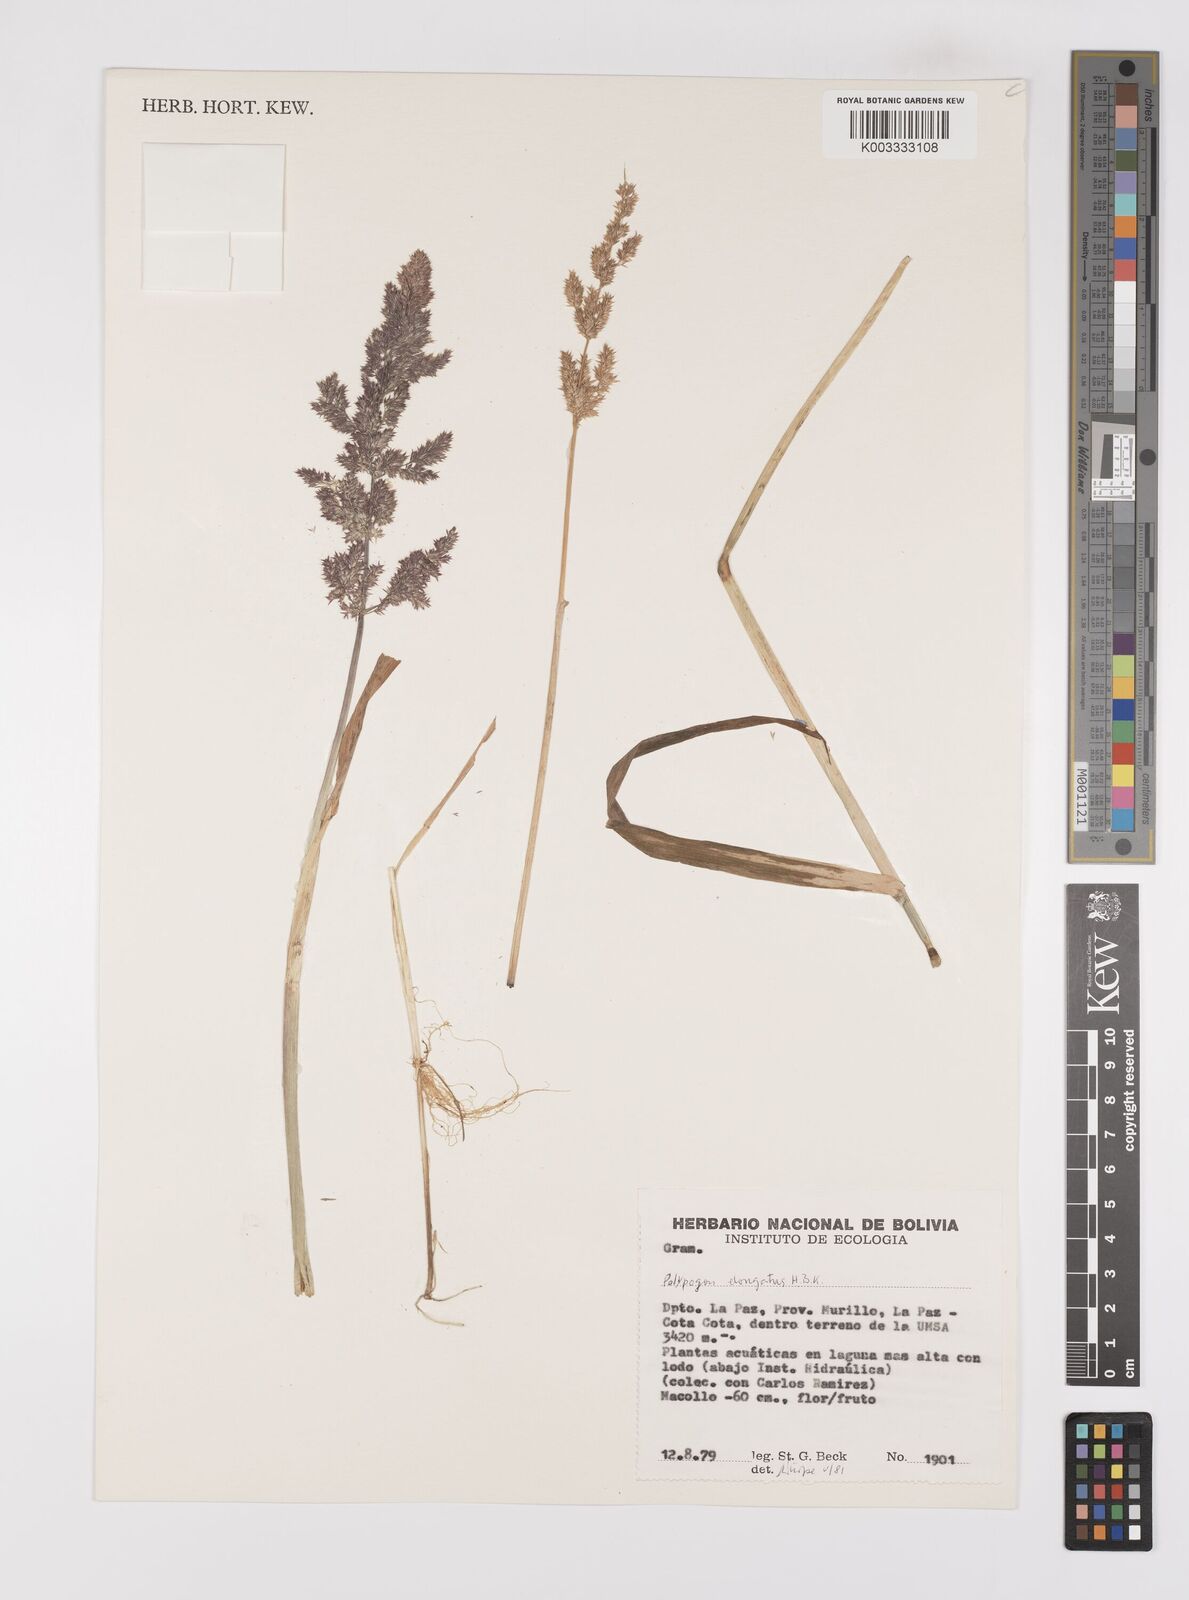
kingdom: Plantae
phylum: Tracheophyta
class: Liliopsida
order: Poales
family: Poaceae
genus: Polypogon
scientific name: Polypogon interruptus
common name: Ditch polypogon
